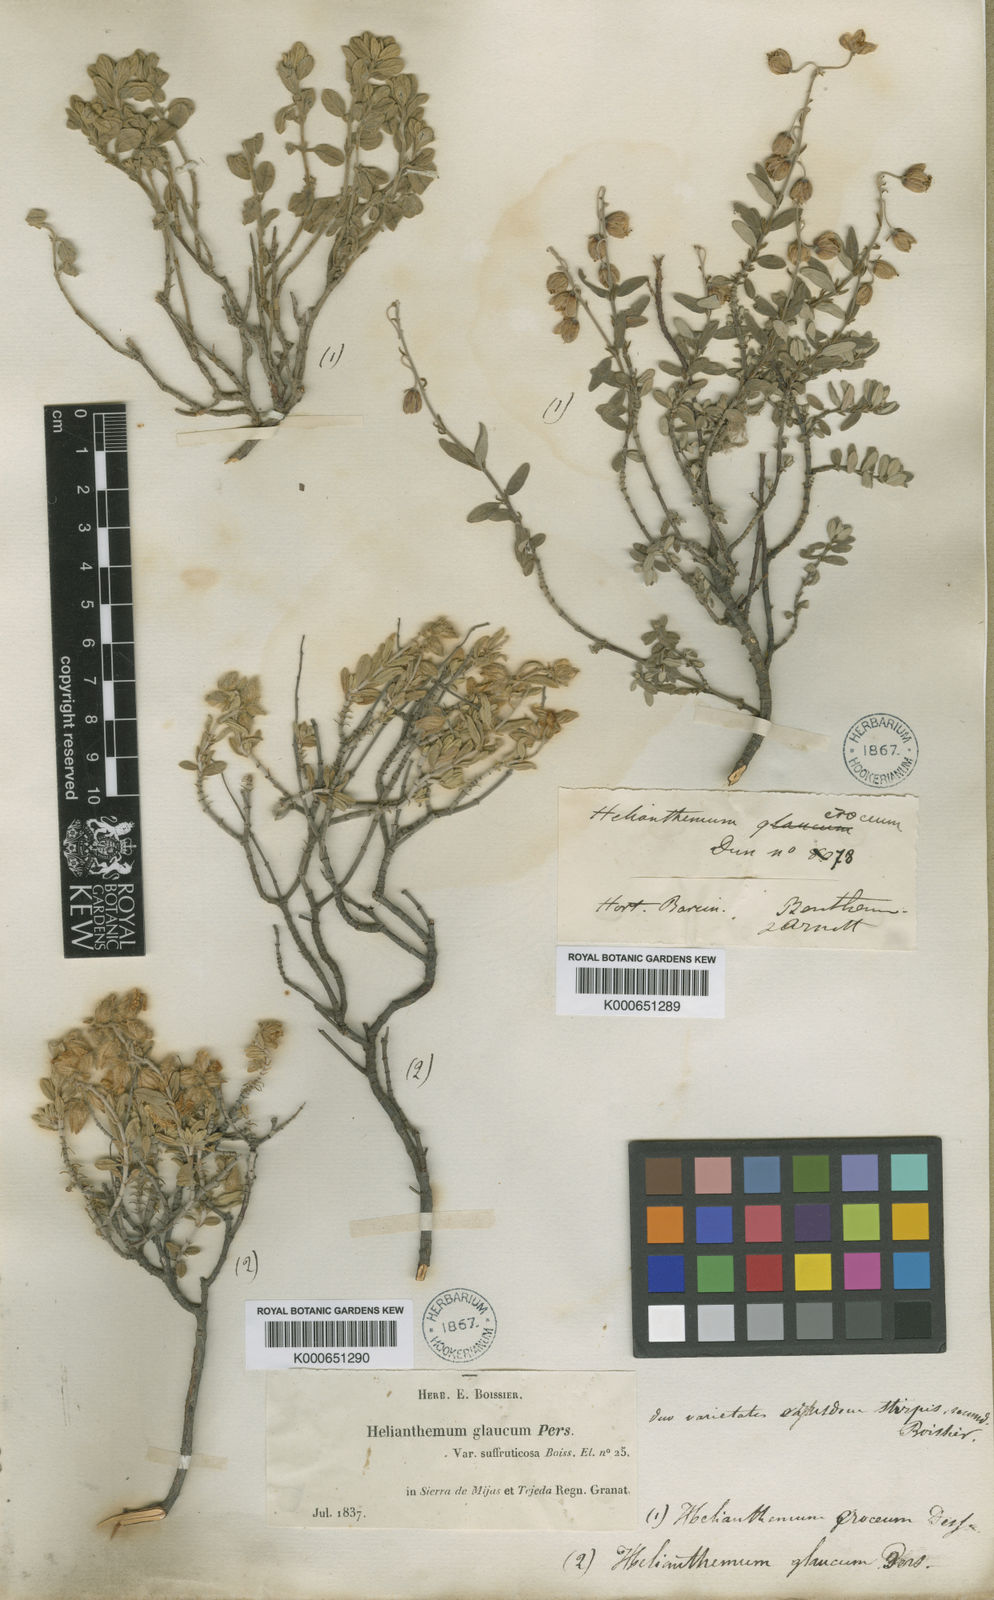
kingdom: Plantae
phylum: Tracheophyta
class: Magnoliopsida
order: Malvales
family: Cistaceae
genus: Helianthemum
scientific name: Helianthemum croceum
